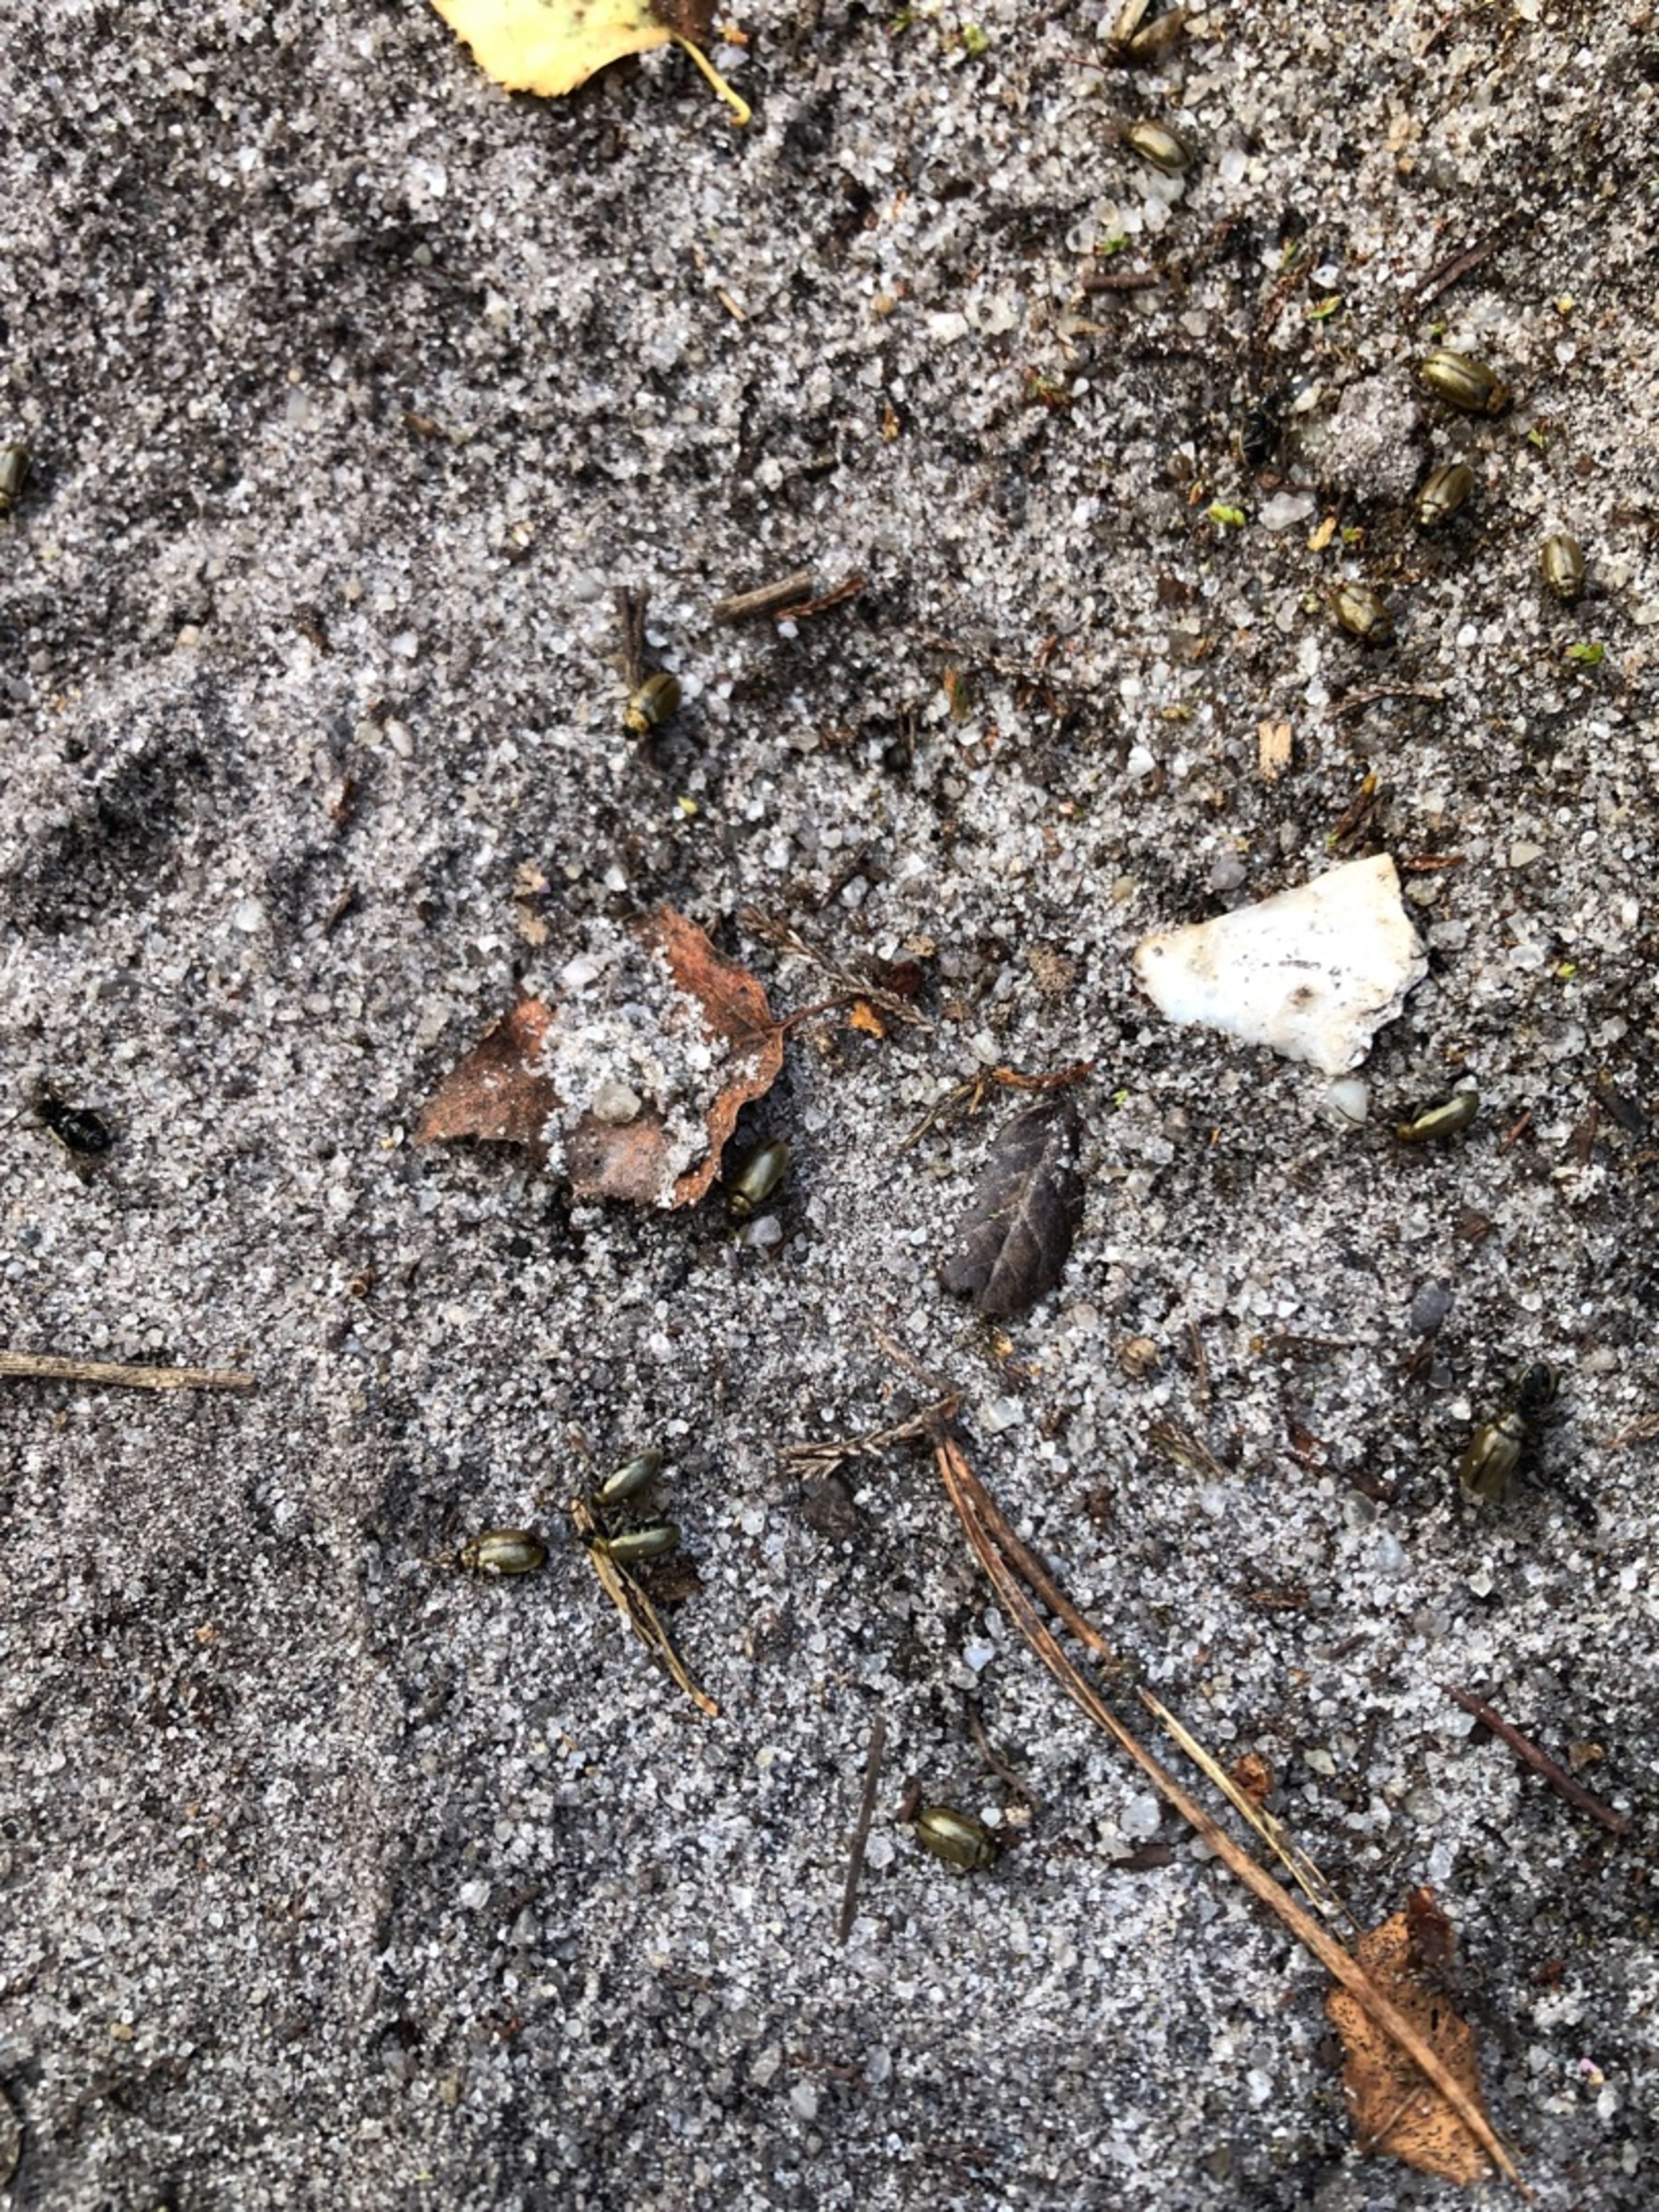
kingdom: Animalia
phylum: Arthropoda
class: Insecta
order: Coleoptera
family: Chrysomelidae
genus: Lochmaea
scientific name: Lochmaea suturalis
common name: Lyngbladbille
